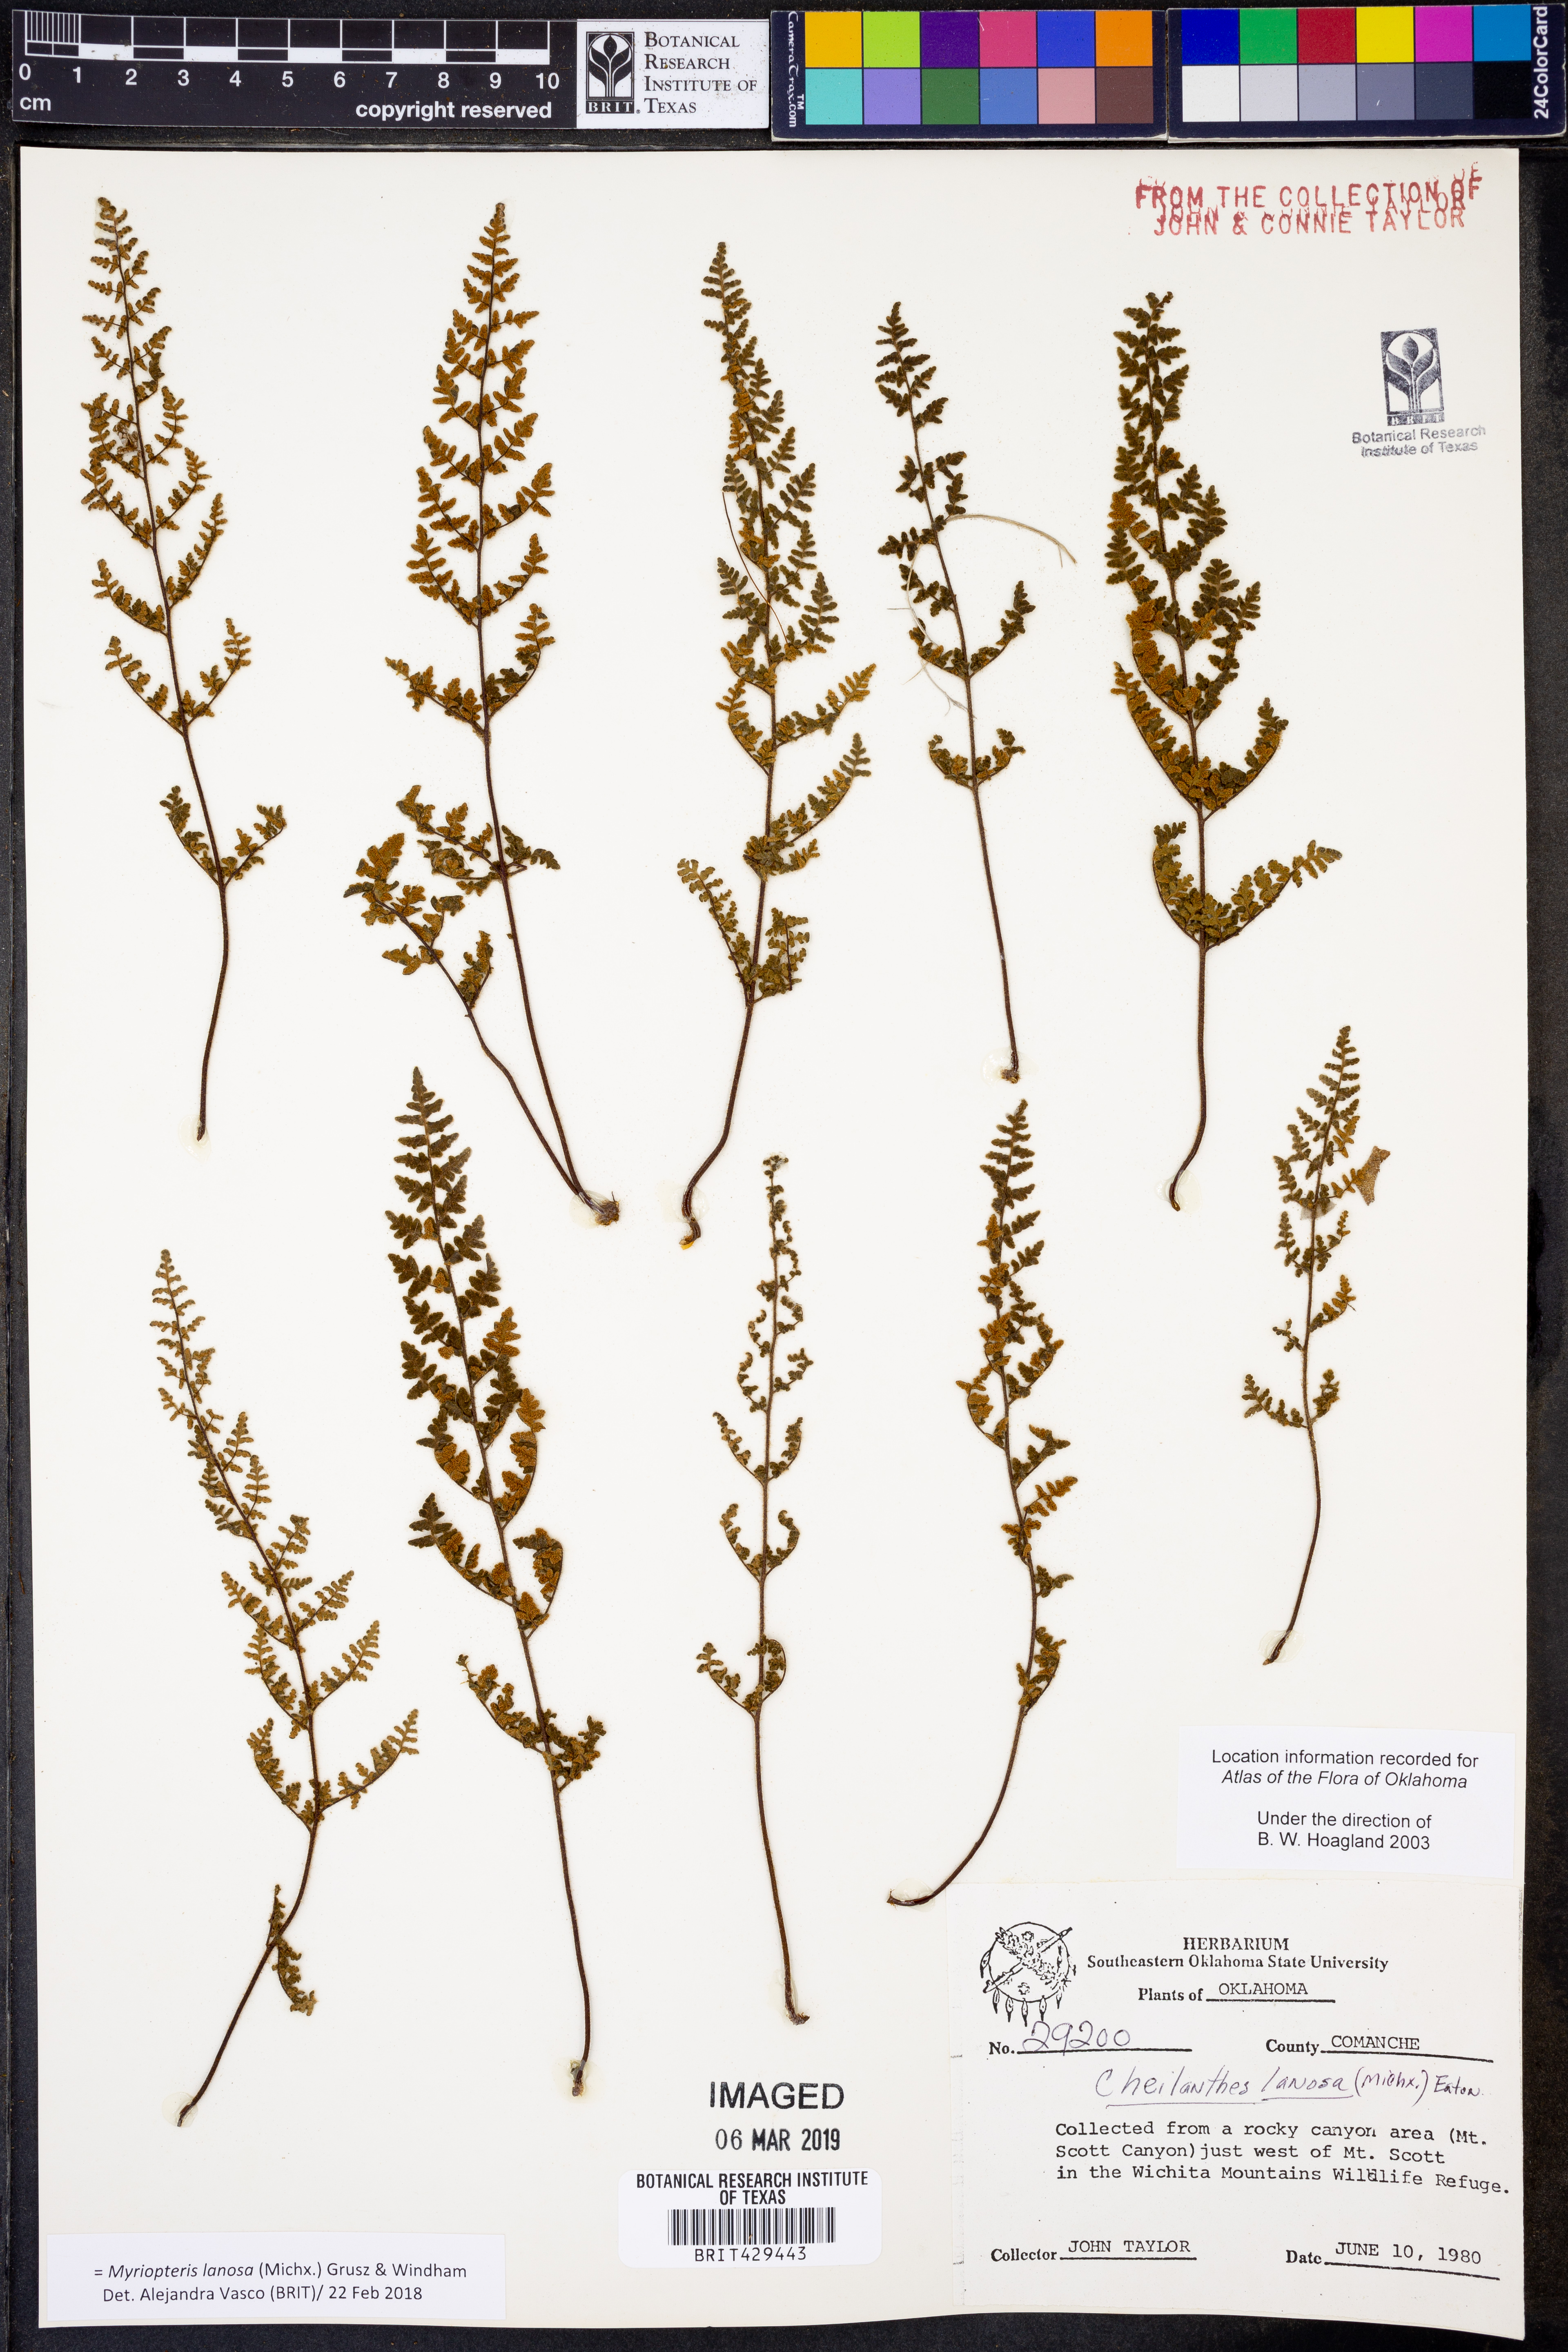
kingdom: Plantae
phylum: Tracheophyta
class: Polypodiopsida
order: Polypodiales
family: Pteridaceae
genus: Myriopteris
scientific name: Myriopteris lanosa
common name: Hairy lip fern
